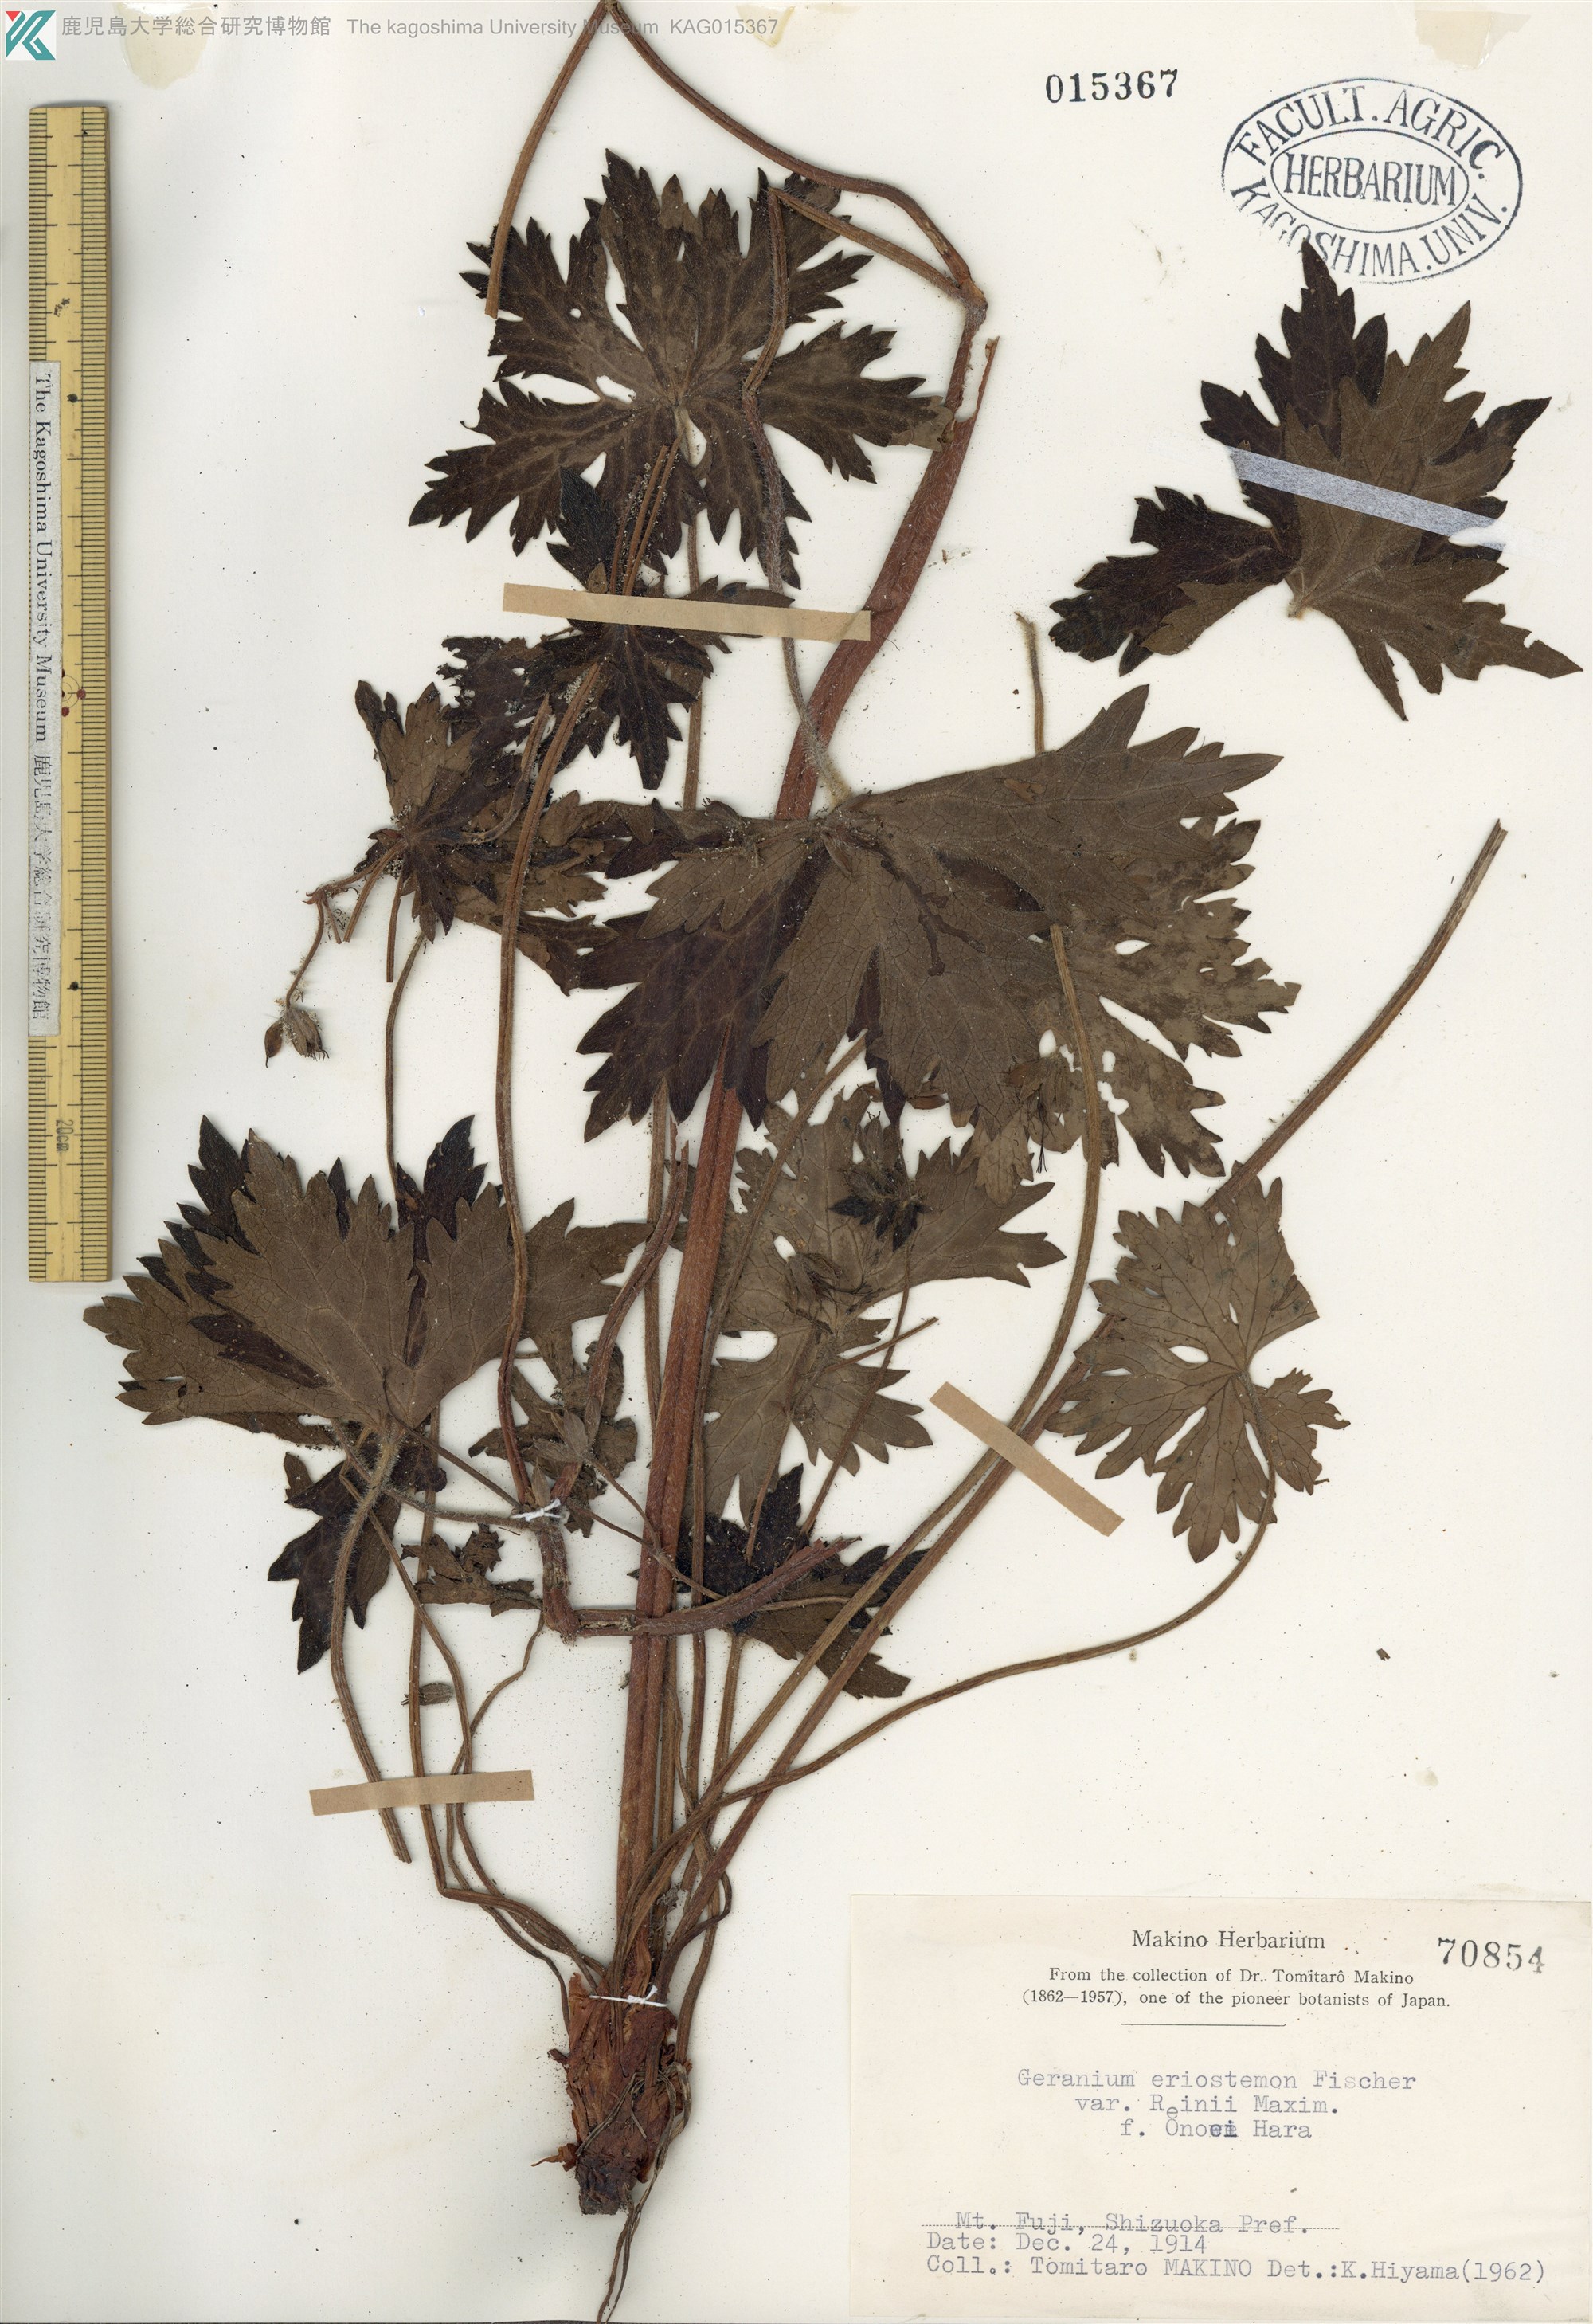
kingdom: Plantae
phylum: Tracheophyta
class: Magnoliopsida
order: Geraniales
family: Geraniaceae
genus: Geranium
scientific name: Geranium reinii
